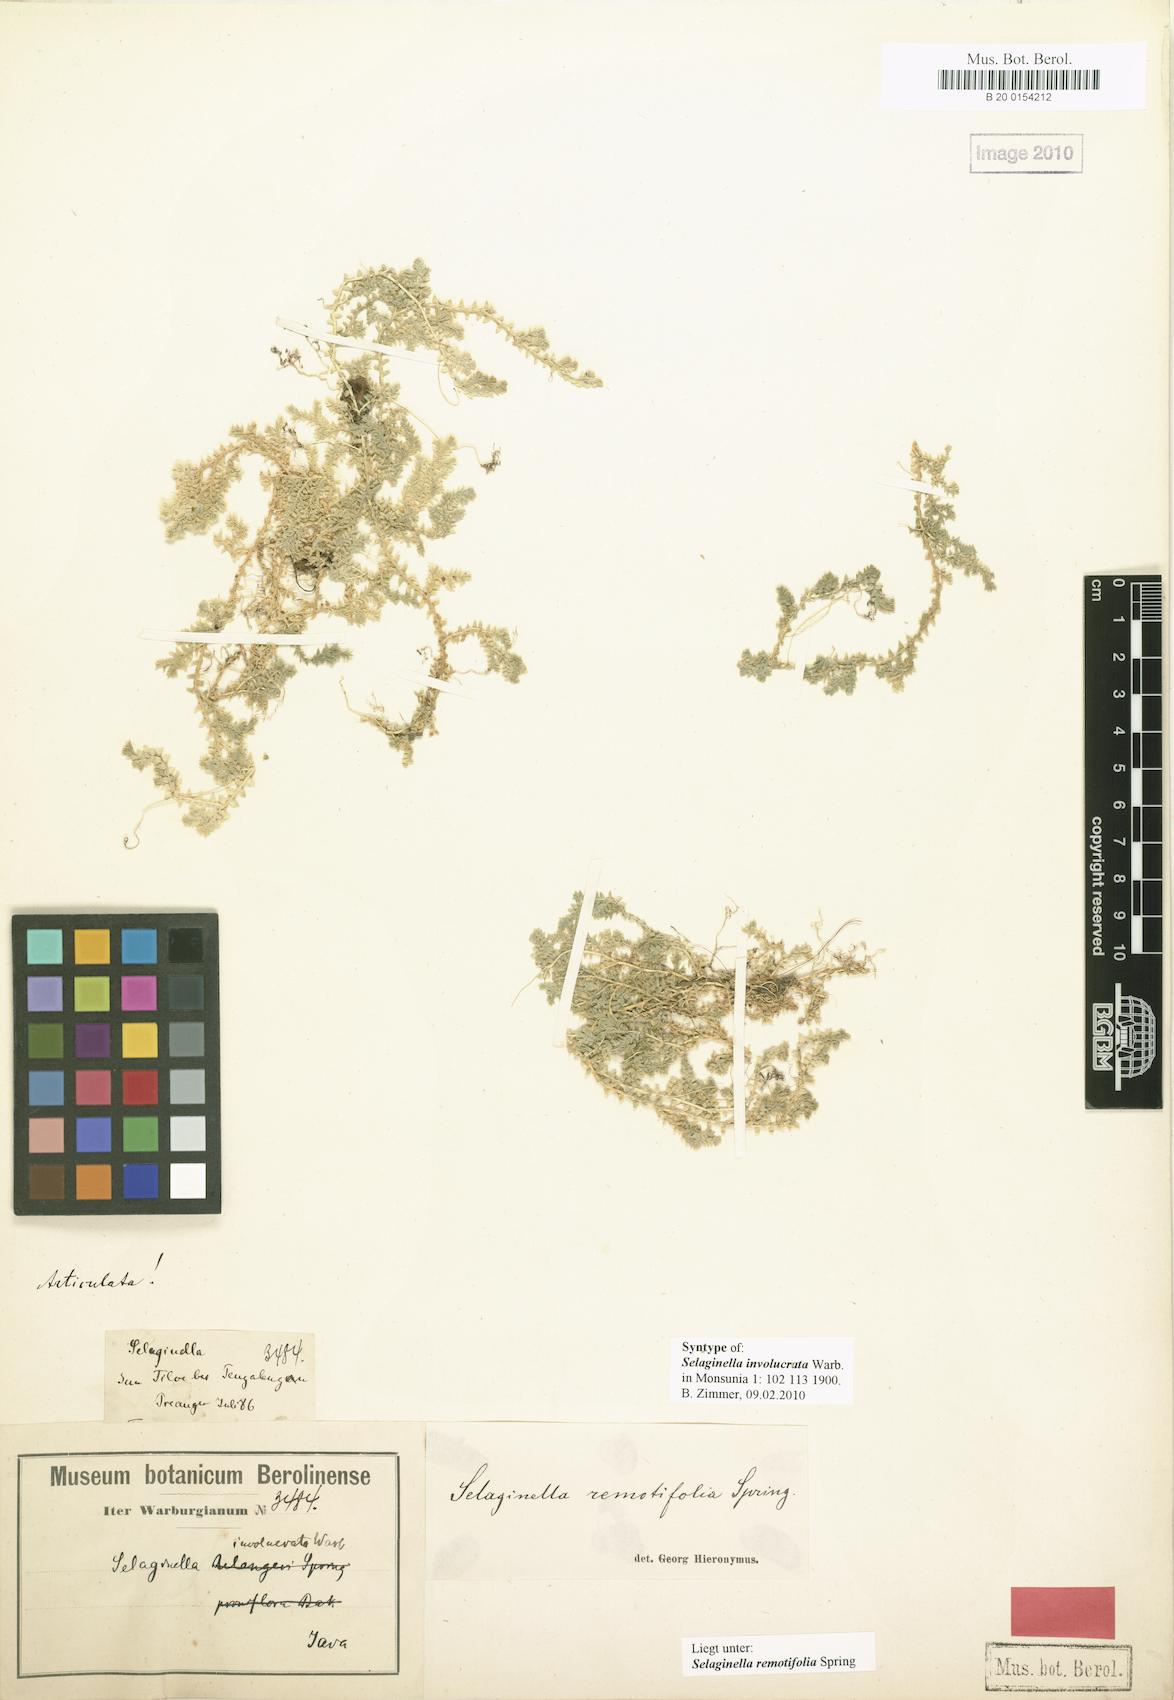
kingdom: Plantae
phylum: Tracheophyta
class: Lycopodiopsida
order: Selaginellales
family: Selaginellaceae
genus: Selaginella
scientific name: Selaginella remotifolia
